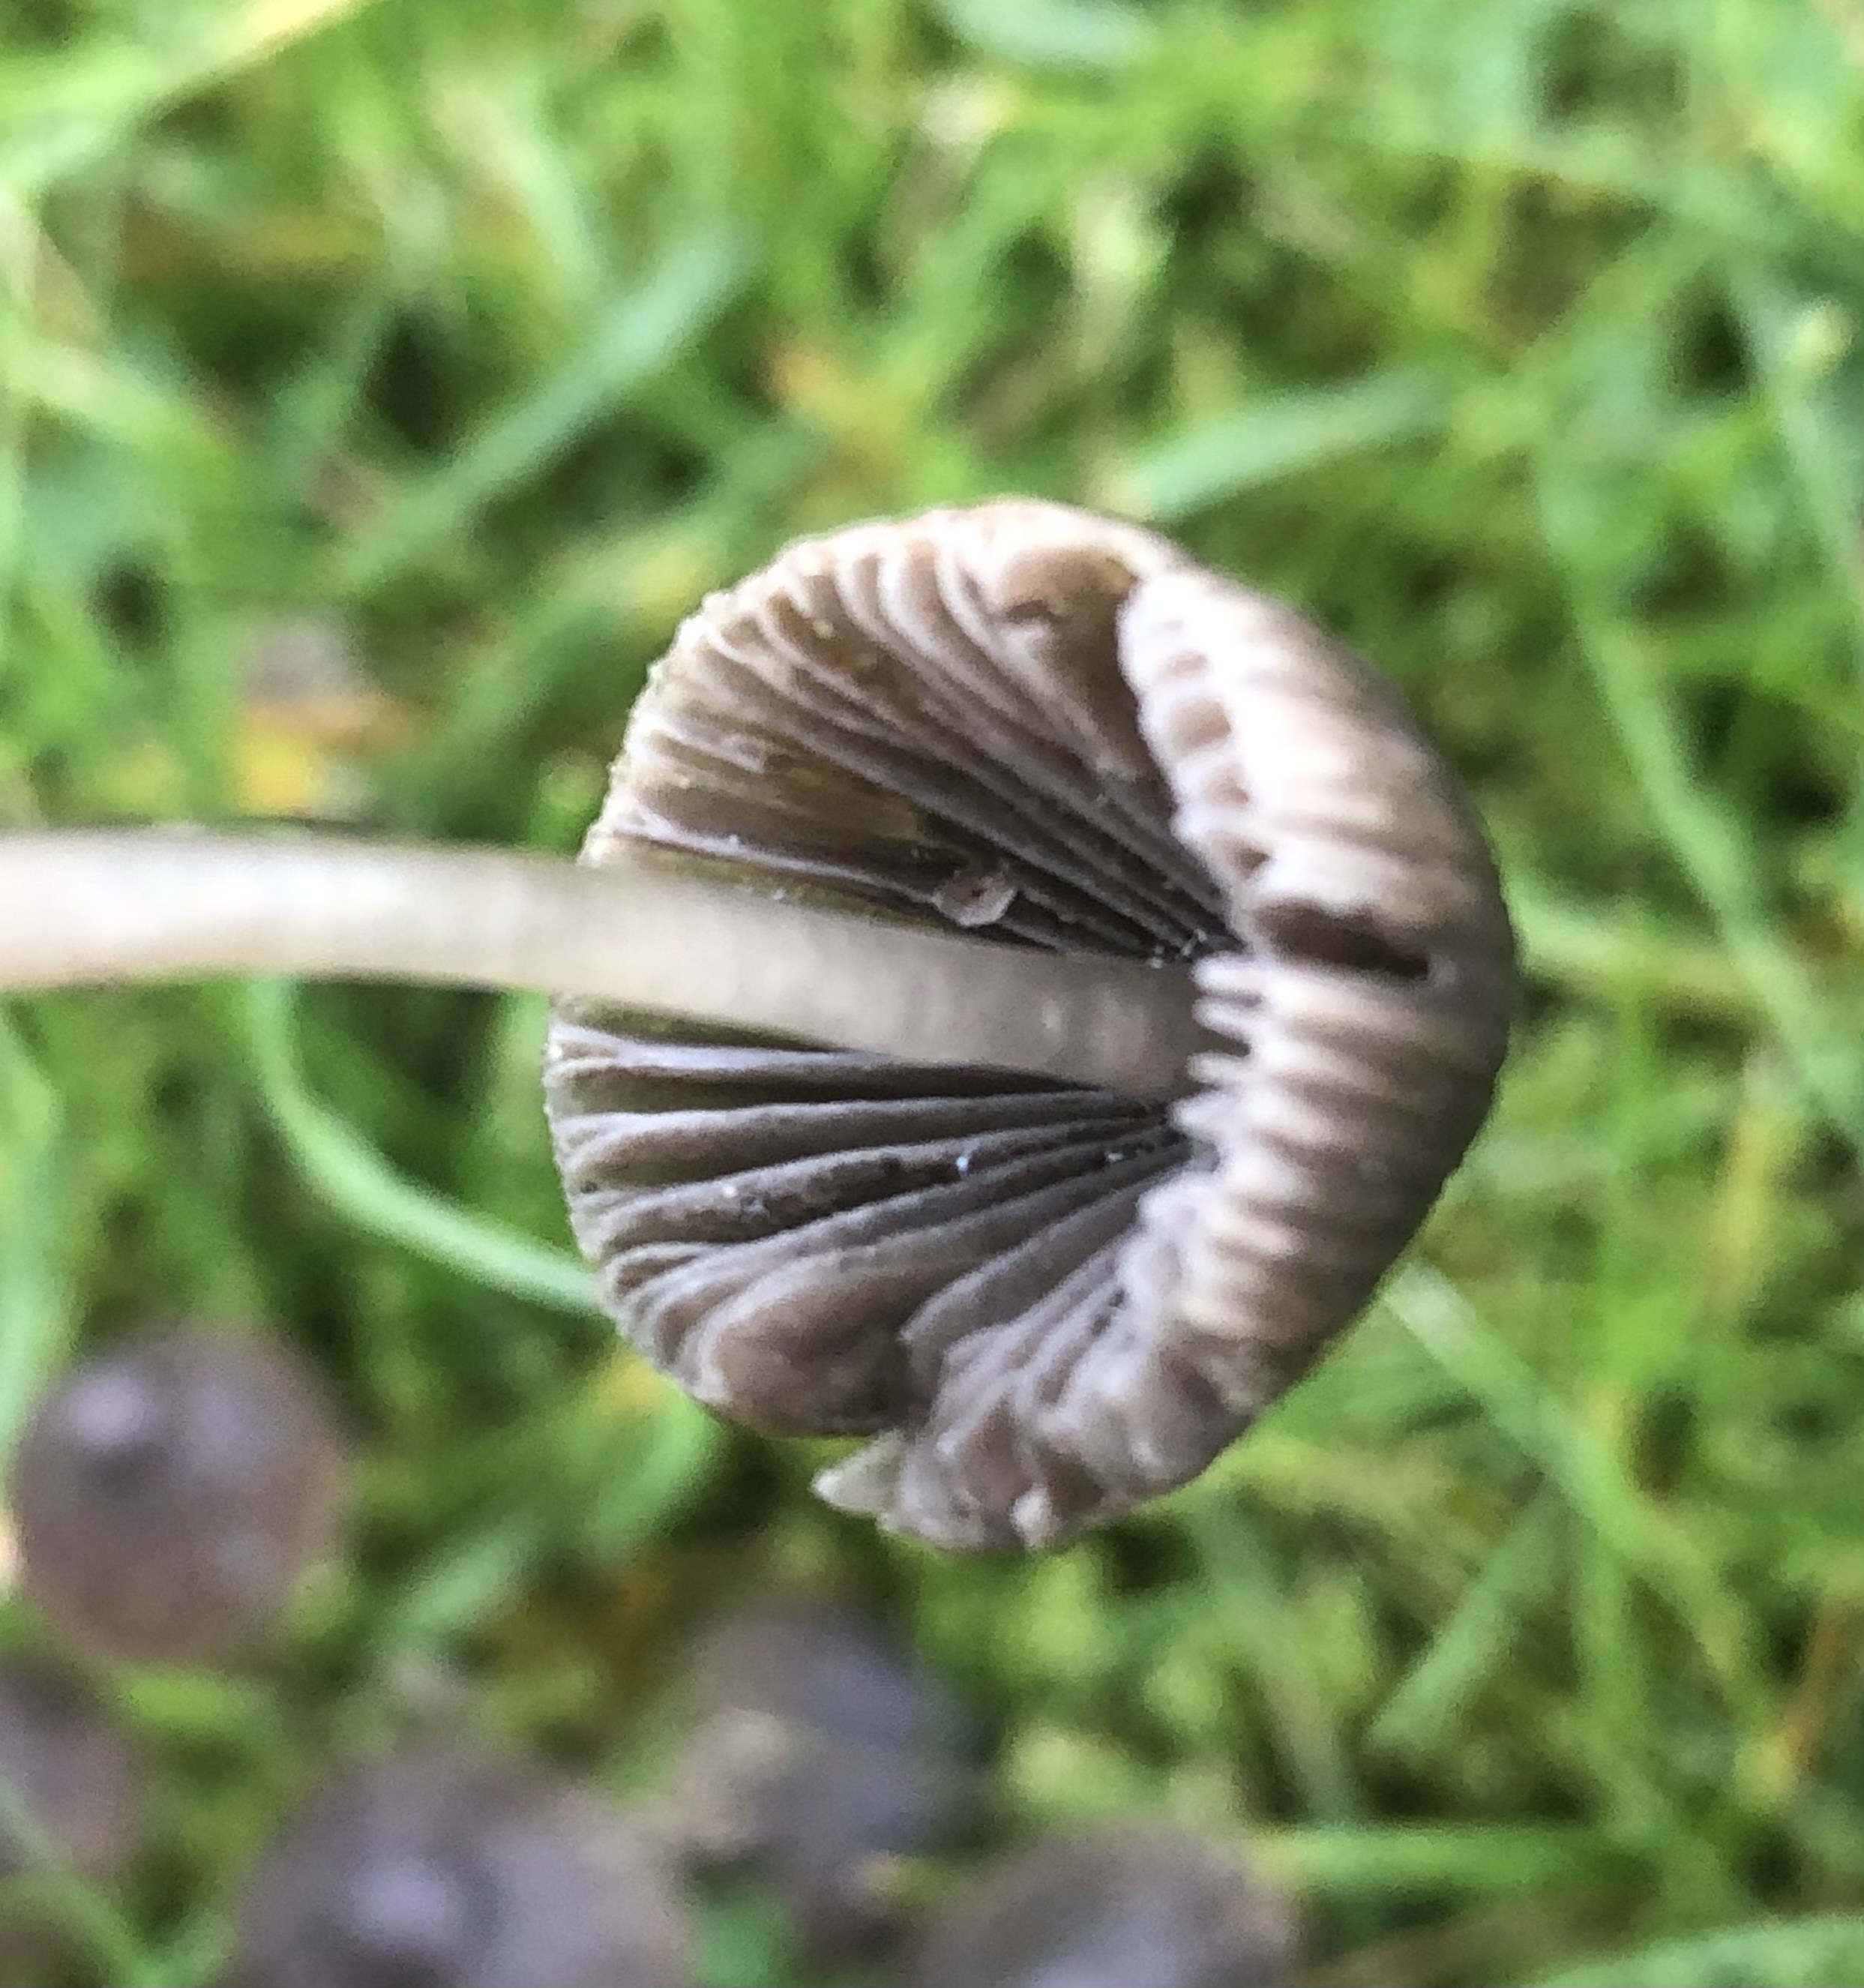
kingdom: Fungi
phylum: Basidiomycota
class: Agaricomycetes
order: Agaricales
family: Mycenaceae
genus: Mycena
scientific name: Mycena aetites
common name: plæne-huesvamp
